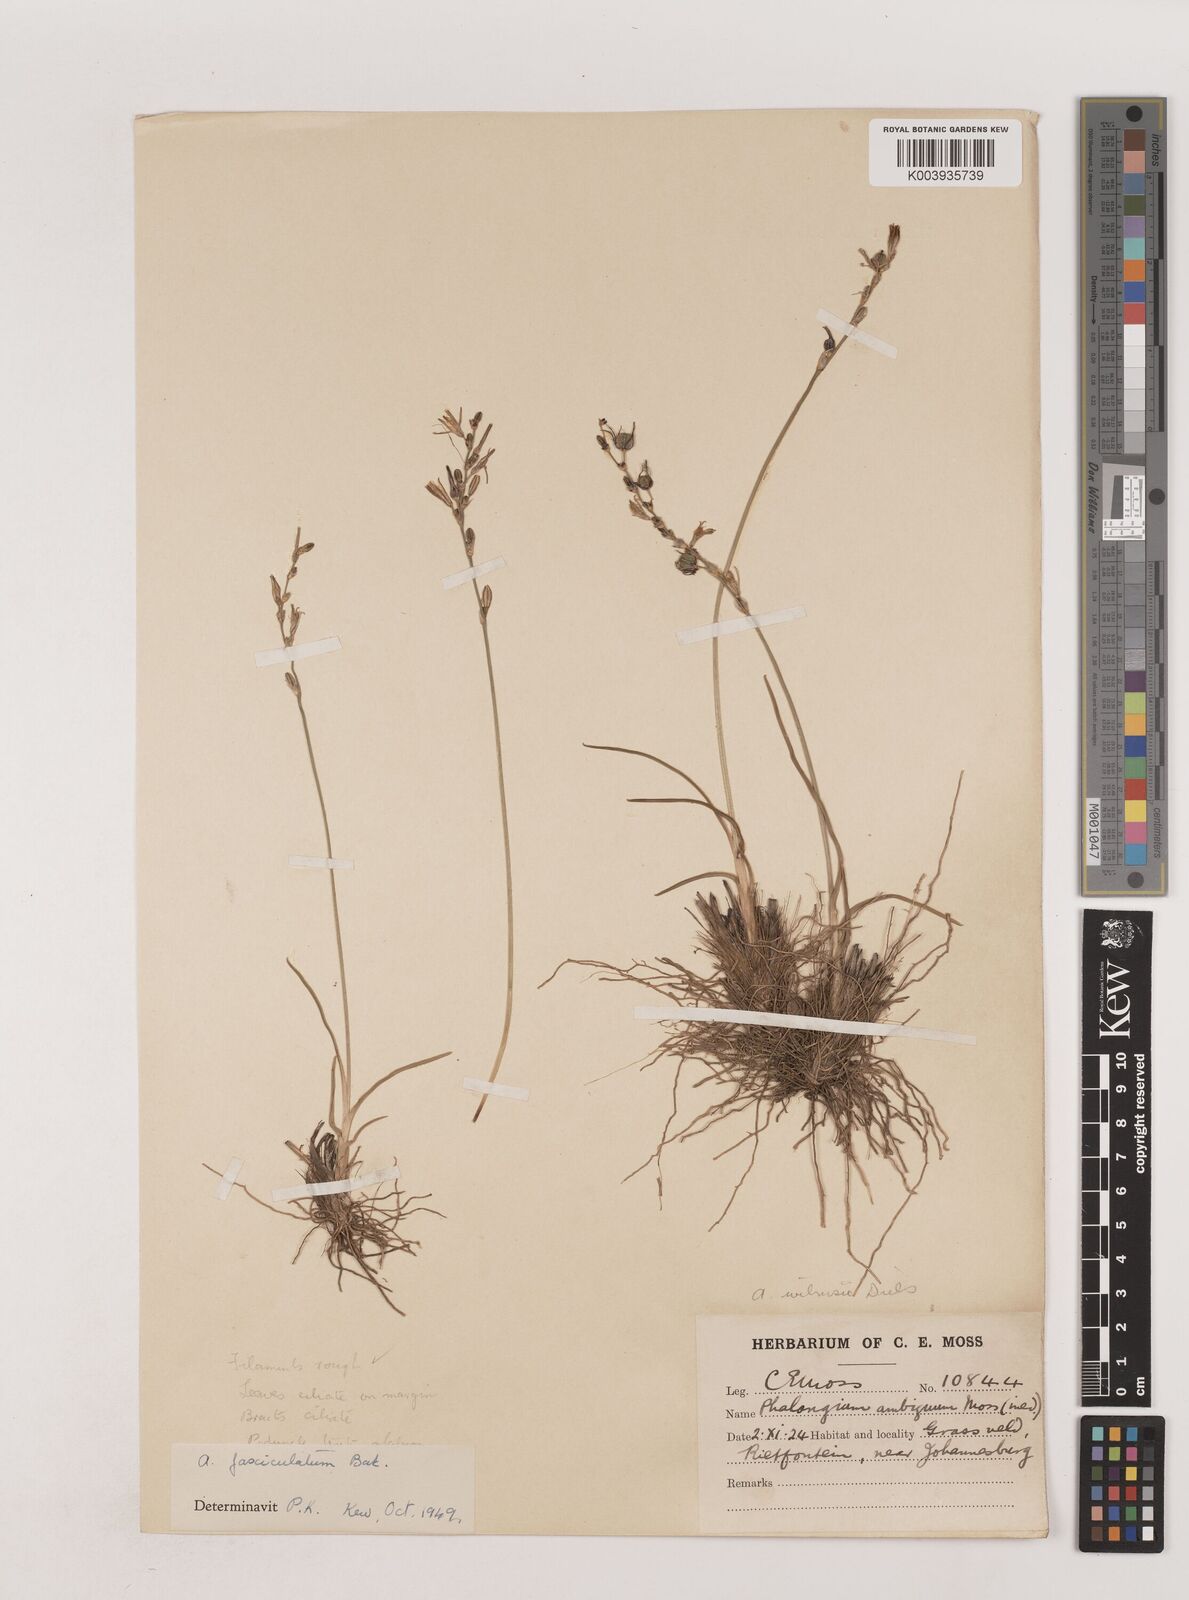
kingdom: Plantae
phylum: Tracheophyta
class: Liliopsida
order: Asparagales
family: Asparagaceae
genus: Chlorophytum
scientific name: Chlorophytum fasciculatum
